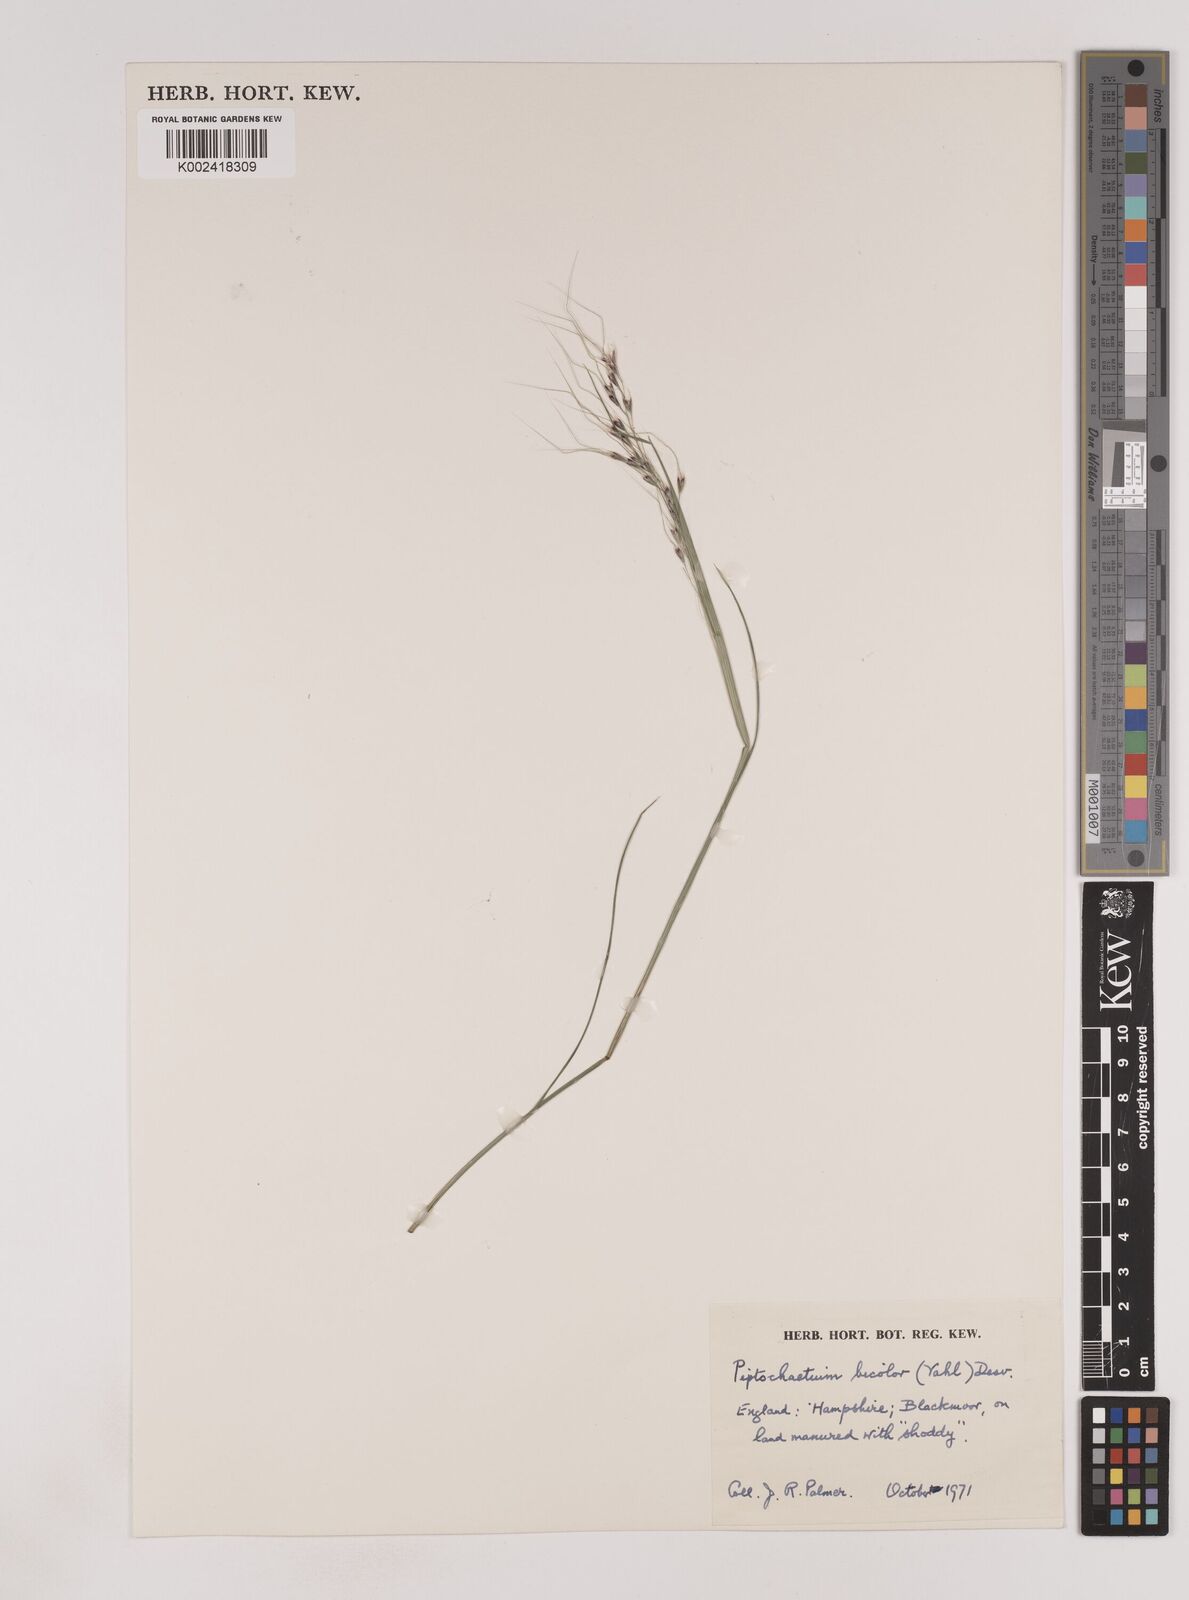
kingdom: Plantae
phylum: Tracheophyta
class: Liliopsida
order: Poales
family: Poaceae
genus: Piptochaetium
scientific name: Piptochaetium bicolor
